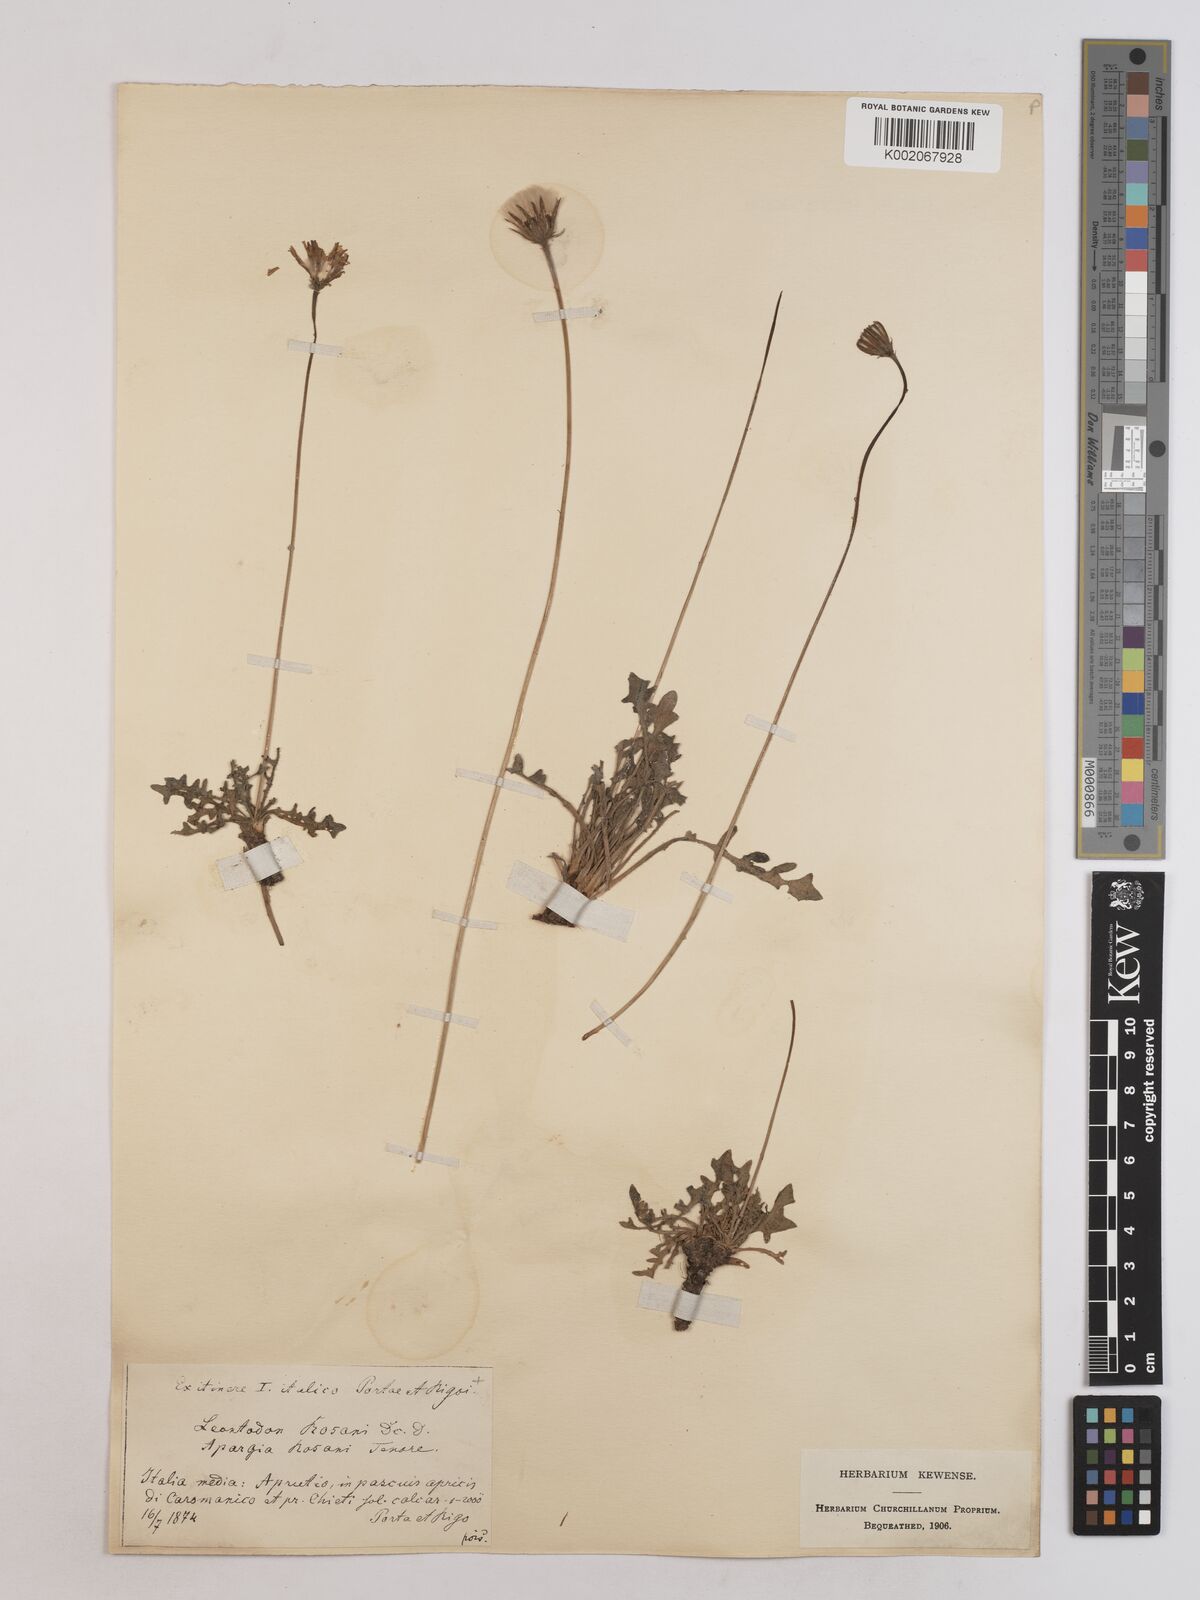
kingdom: Plantae
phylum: Tracheophyta
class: Magnoliopsida
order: Asterales
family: Asteraceae
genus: Leontodon
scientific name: Leontodon rosanoi
